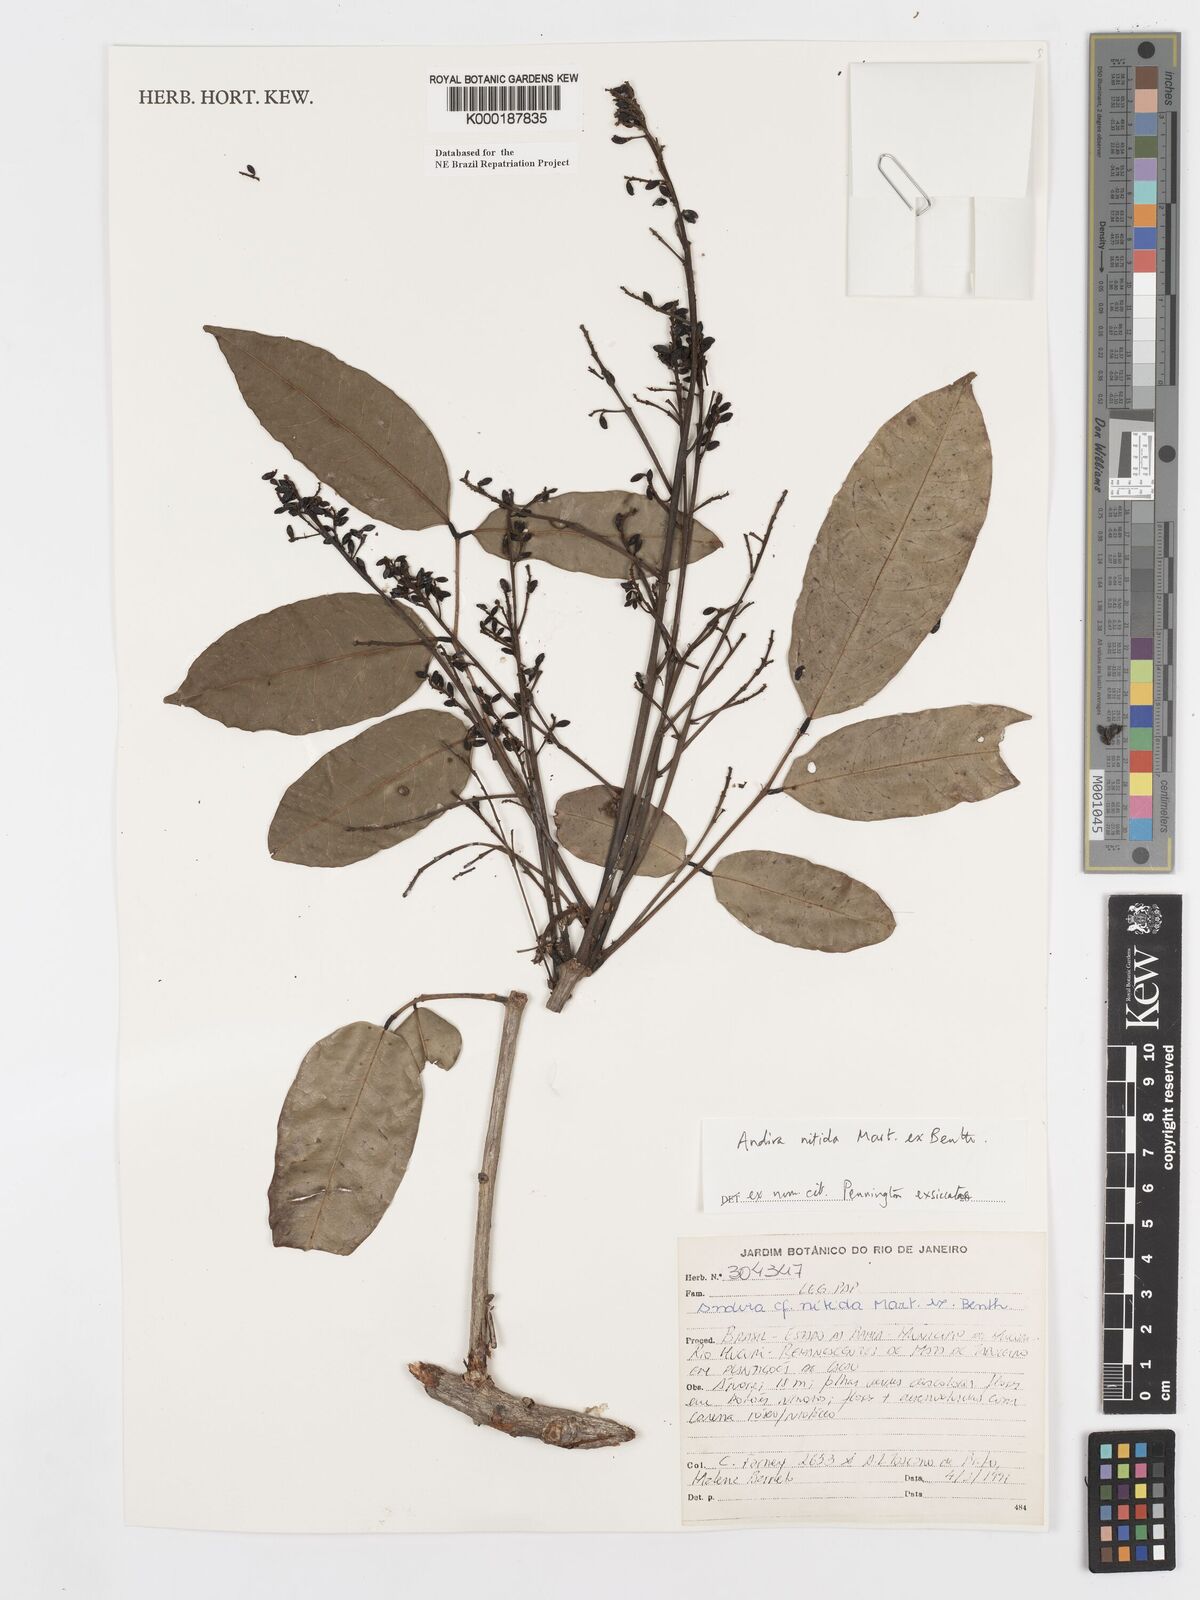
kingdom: Plantae
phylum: Tracheophyta
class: Magnoliopsida
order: Fabales
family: Fabaceae
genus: Andira
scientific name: Andira nitida
